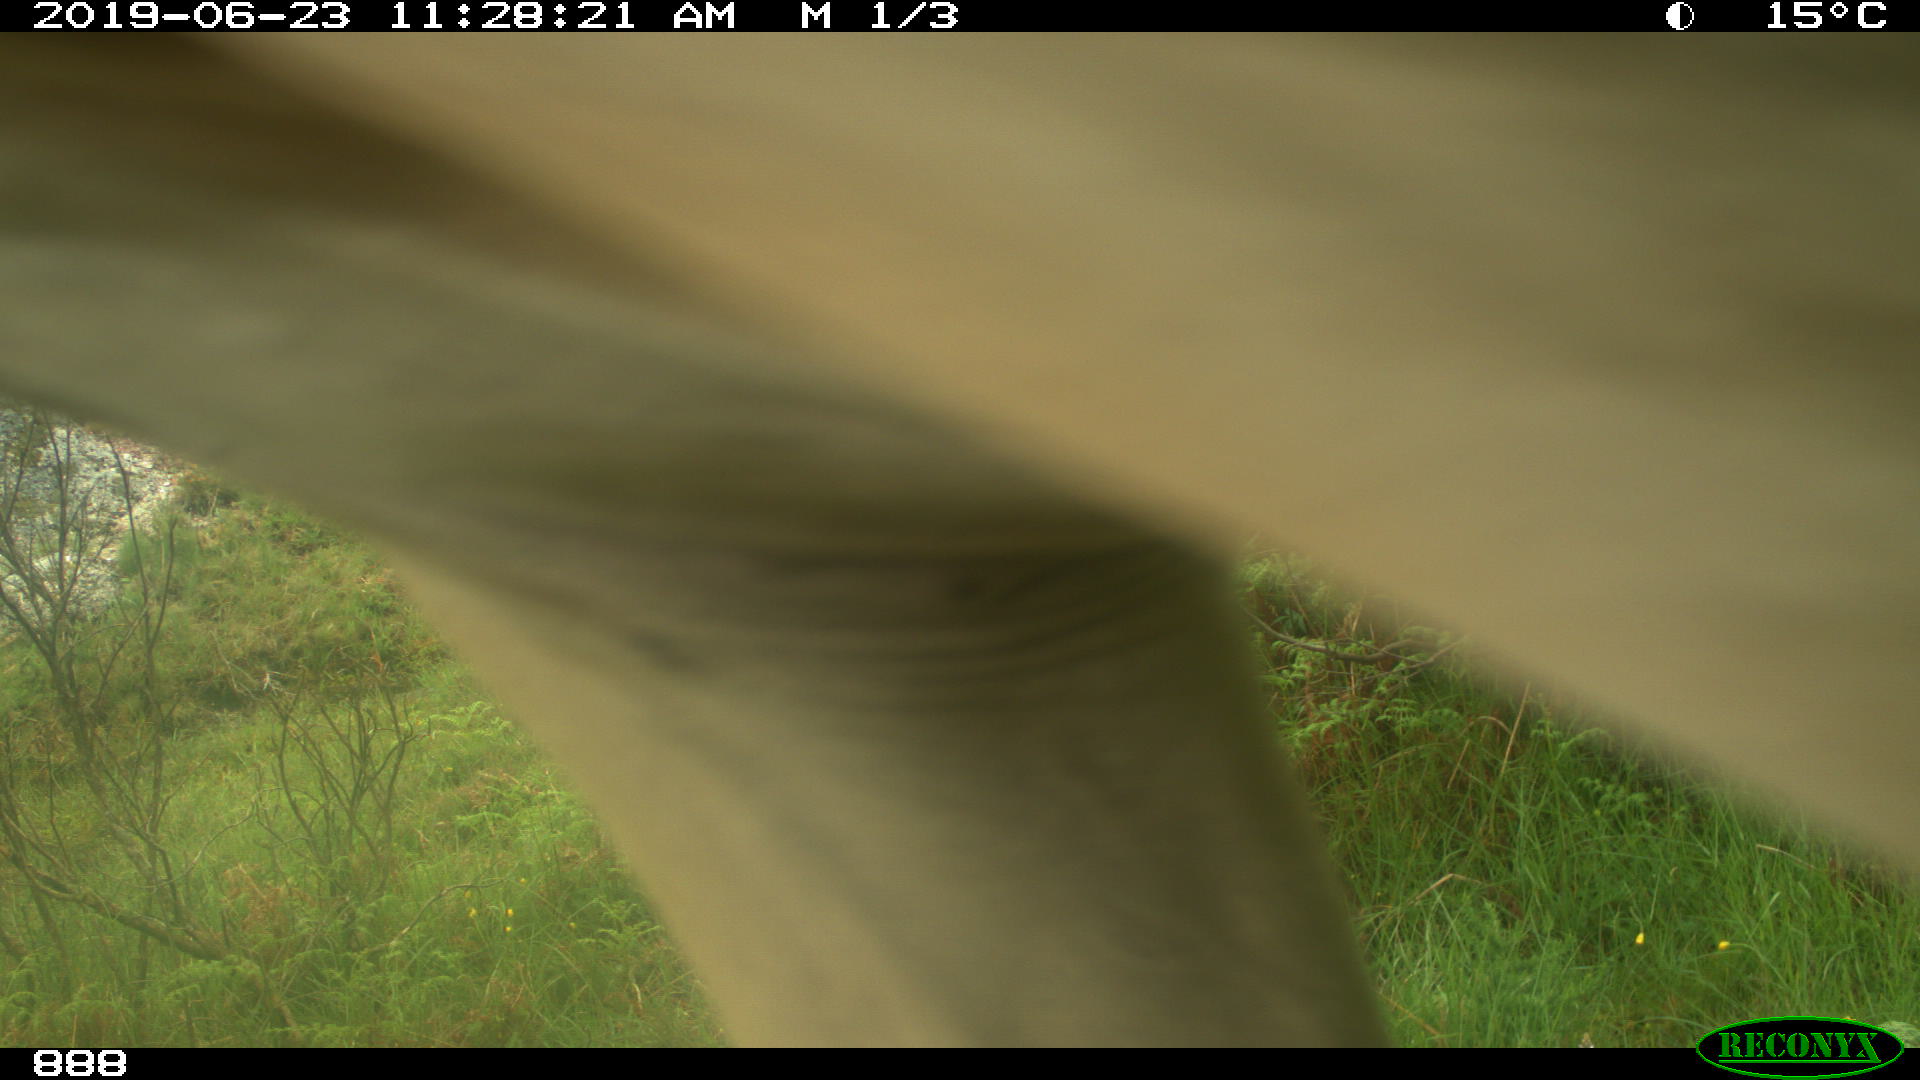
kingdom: Animalia
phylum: Chordata
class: Mammalia
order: Perissodactyla
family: Equidae
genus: Equus
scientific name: Equus caballus
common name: Horse
